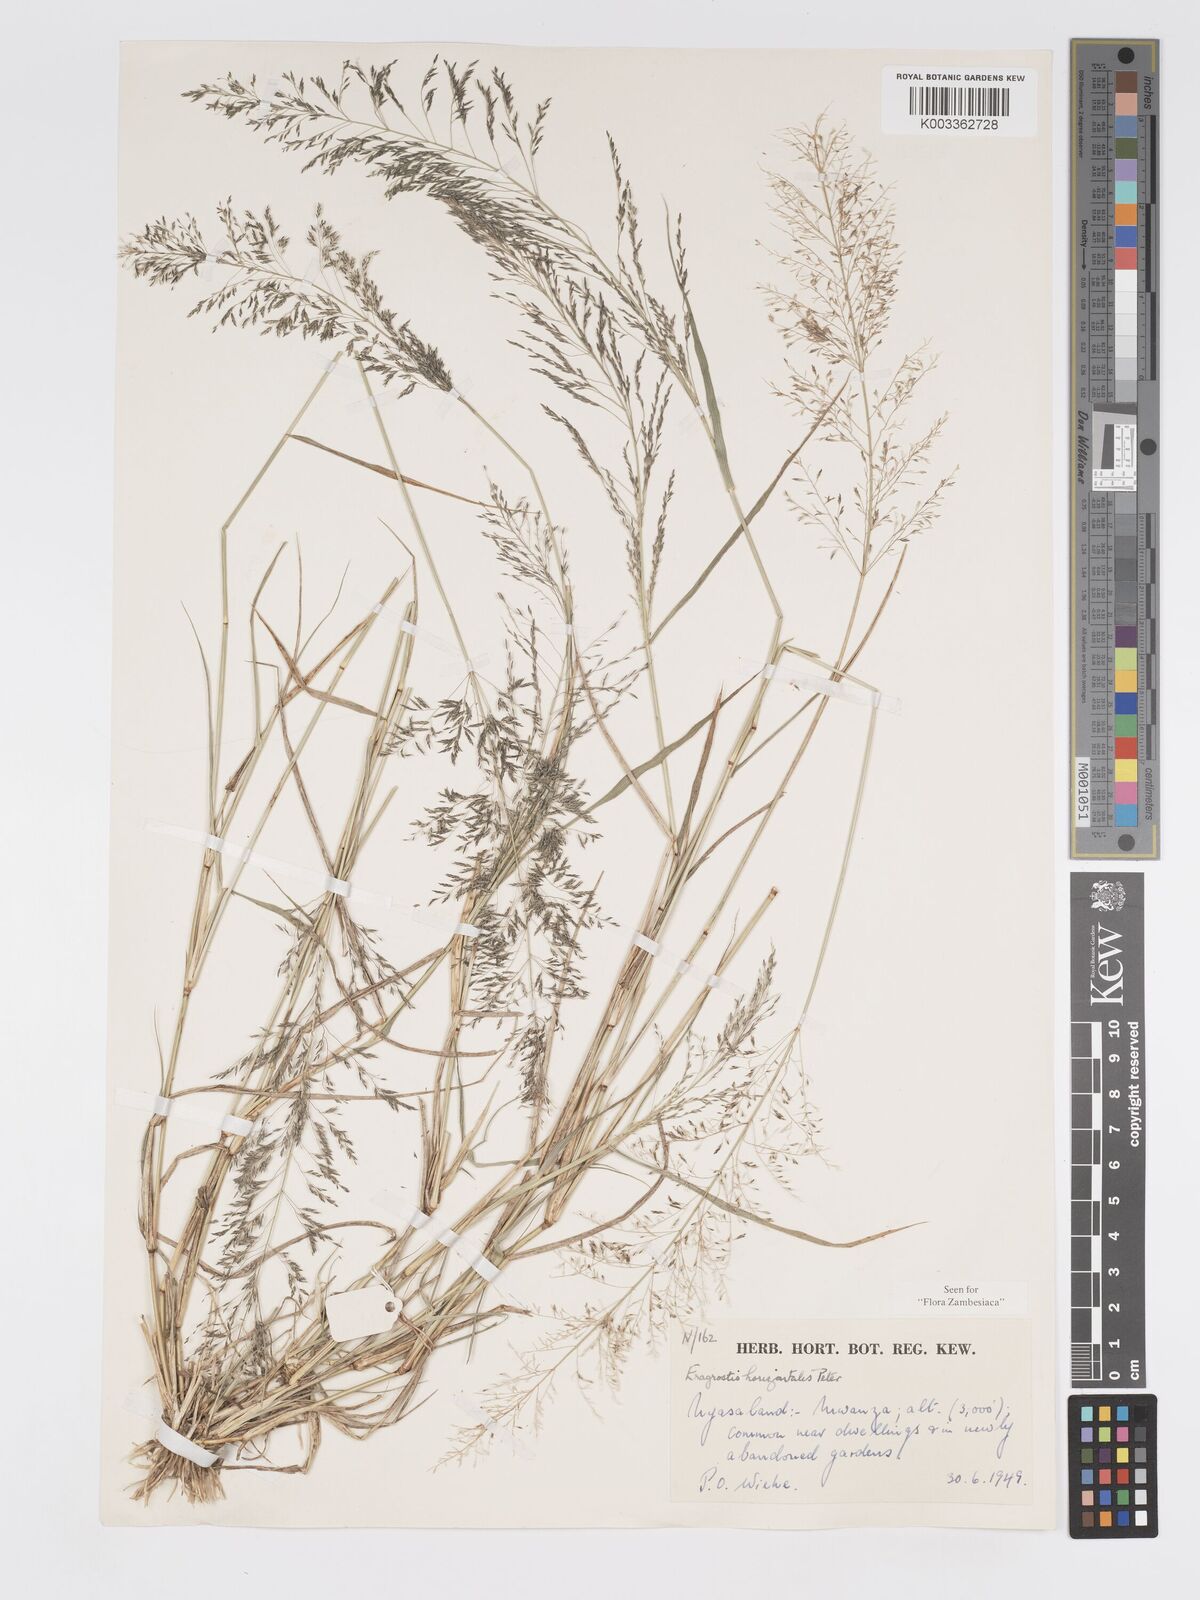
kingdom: Plantae
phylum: Tracheophyta
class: Liliopsida
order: Poales
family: Poaceae
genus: Eragrostis
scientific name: Eragrostis cylindriflora
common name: Cylinderflower lovegrass
